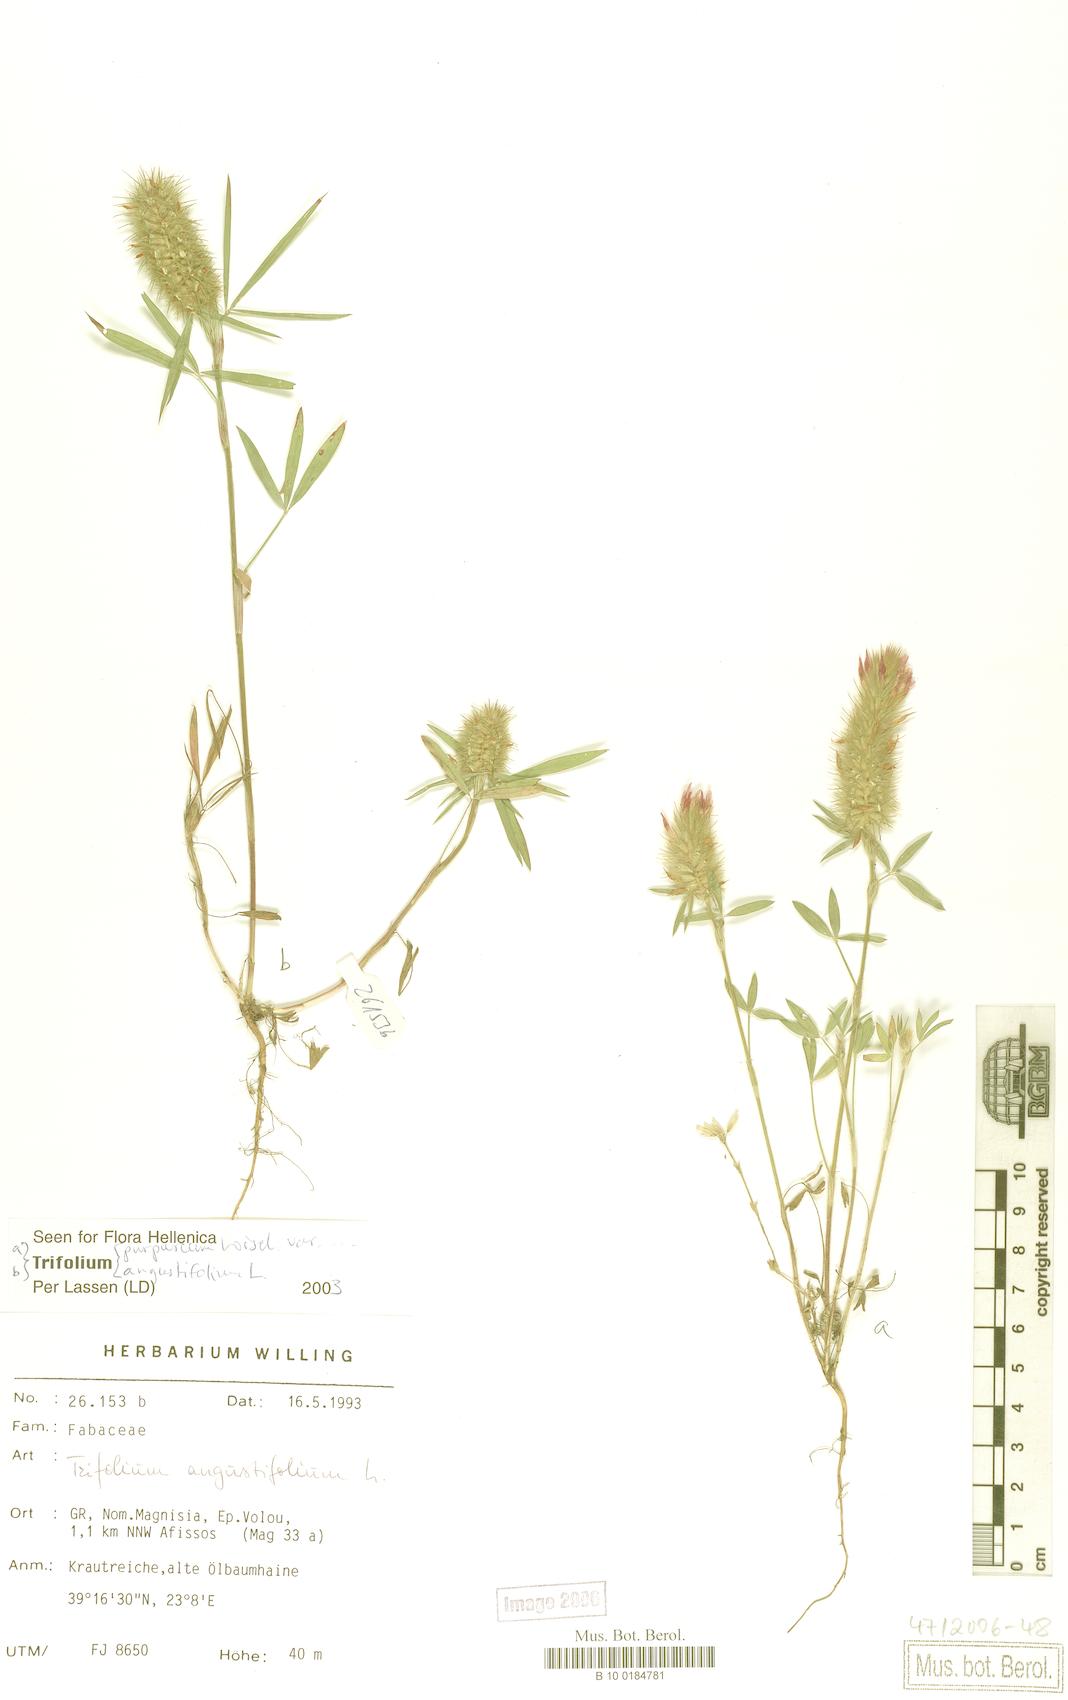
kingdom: Plantae
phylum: Tracheophyta
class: Magnoliopsida
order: Fabales
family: Fabaceae
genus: Trifolium
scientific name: Trifolium angustifolium
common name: Narrow clover
